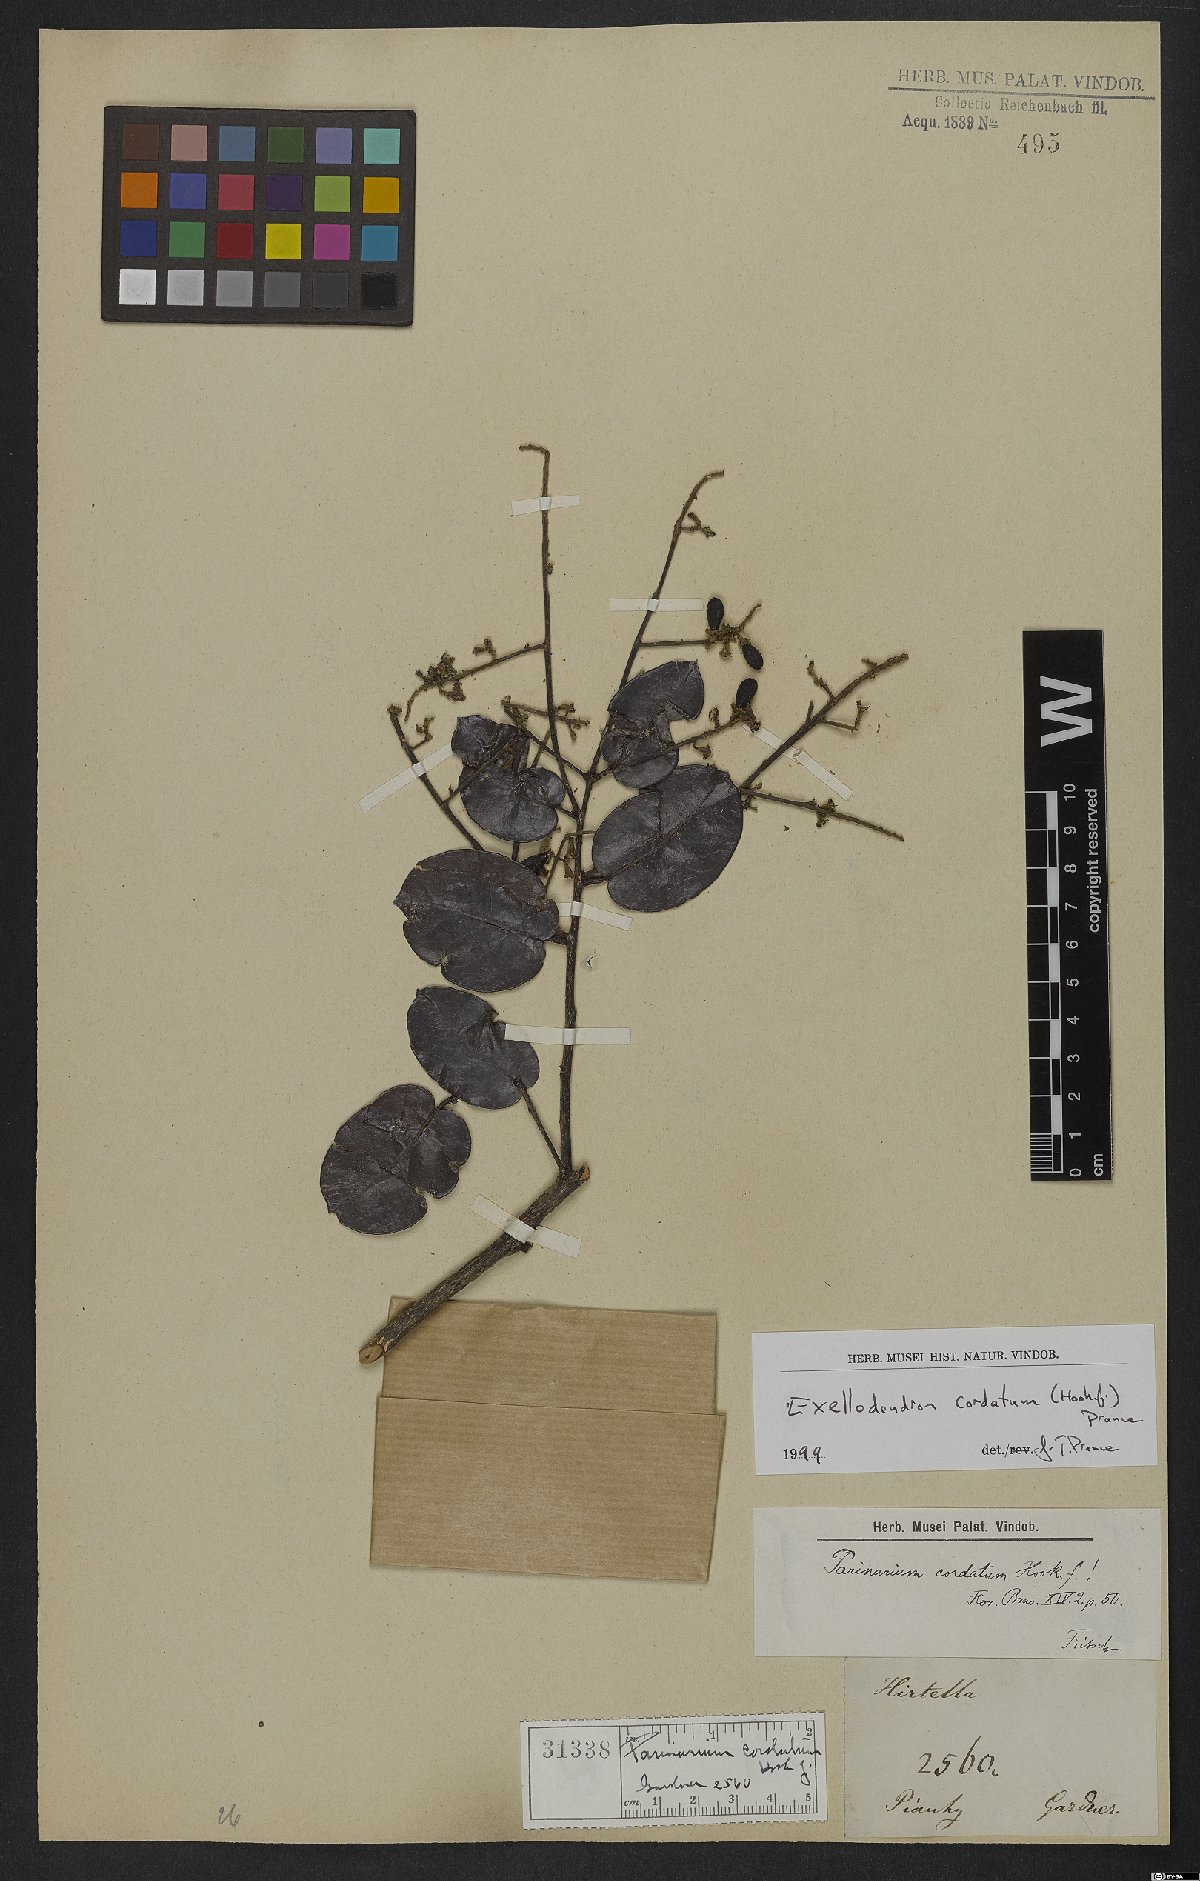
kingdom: Plantae
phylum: Tracheophyta
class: Magnoliopsida
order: Malpighiales
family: Chrysobalanaceae
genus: Exellodendron
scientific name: Exellodendron cordatum
